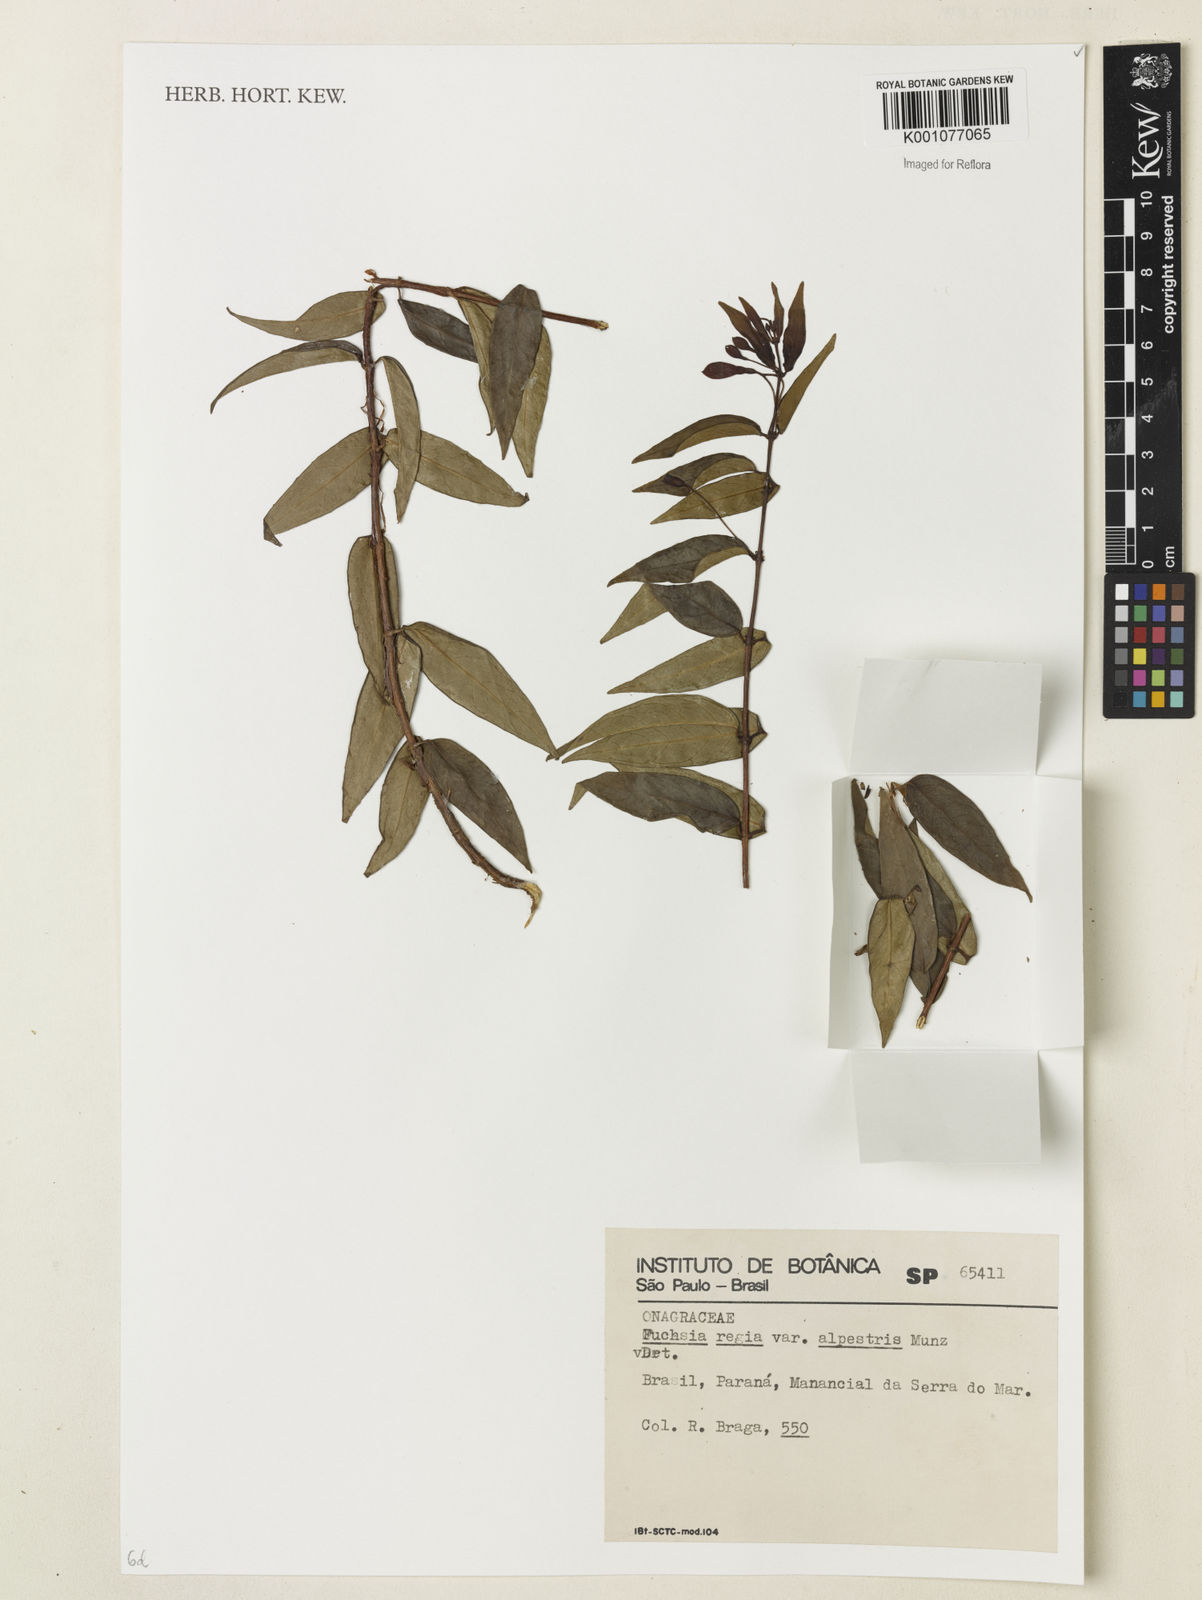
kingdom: Plantae
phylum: Tracheophyta
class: Magnoliopsida
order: Myrtales
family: Onagraceae
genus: Fuchsia
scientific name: Fuchsia alpestris
